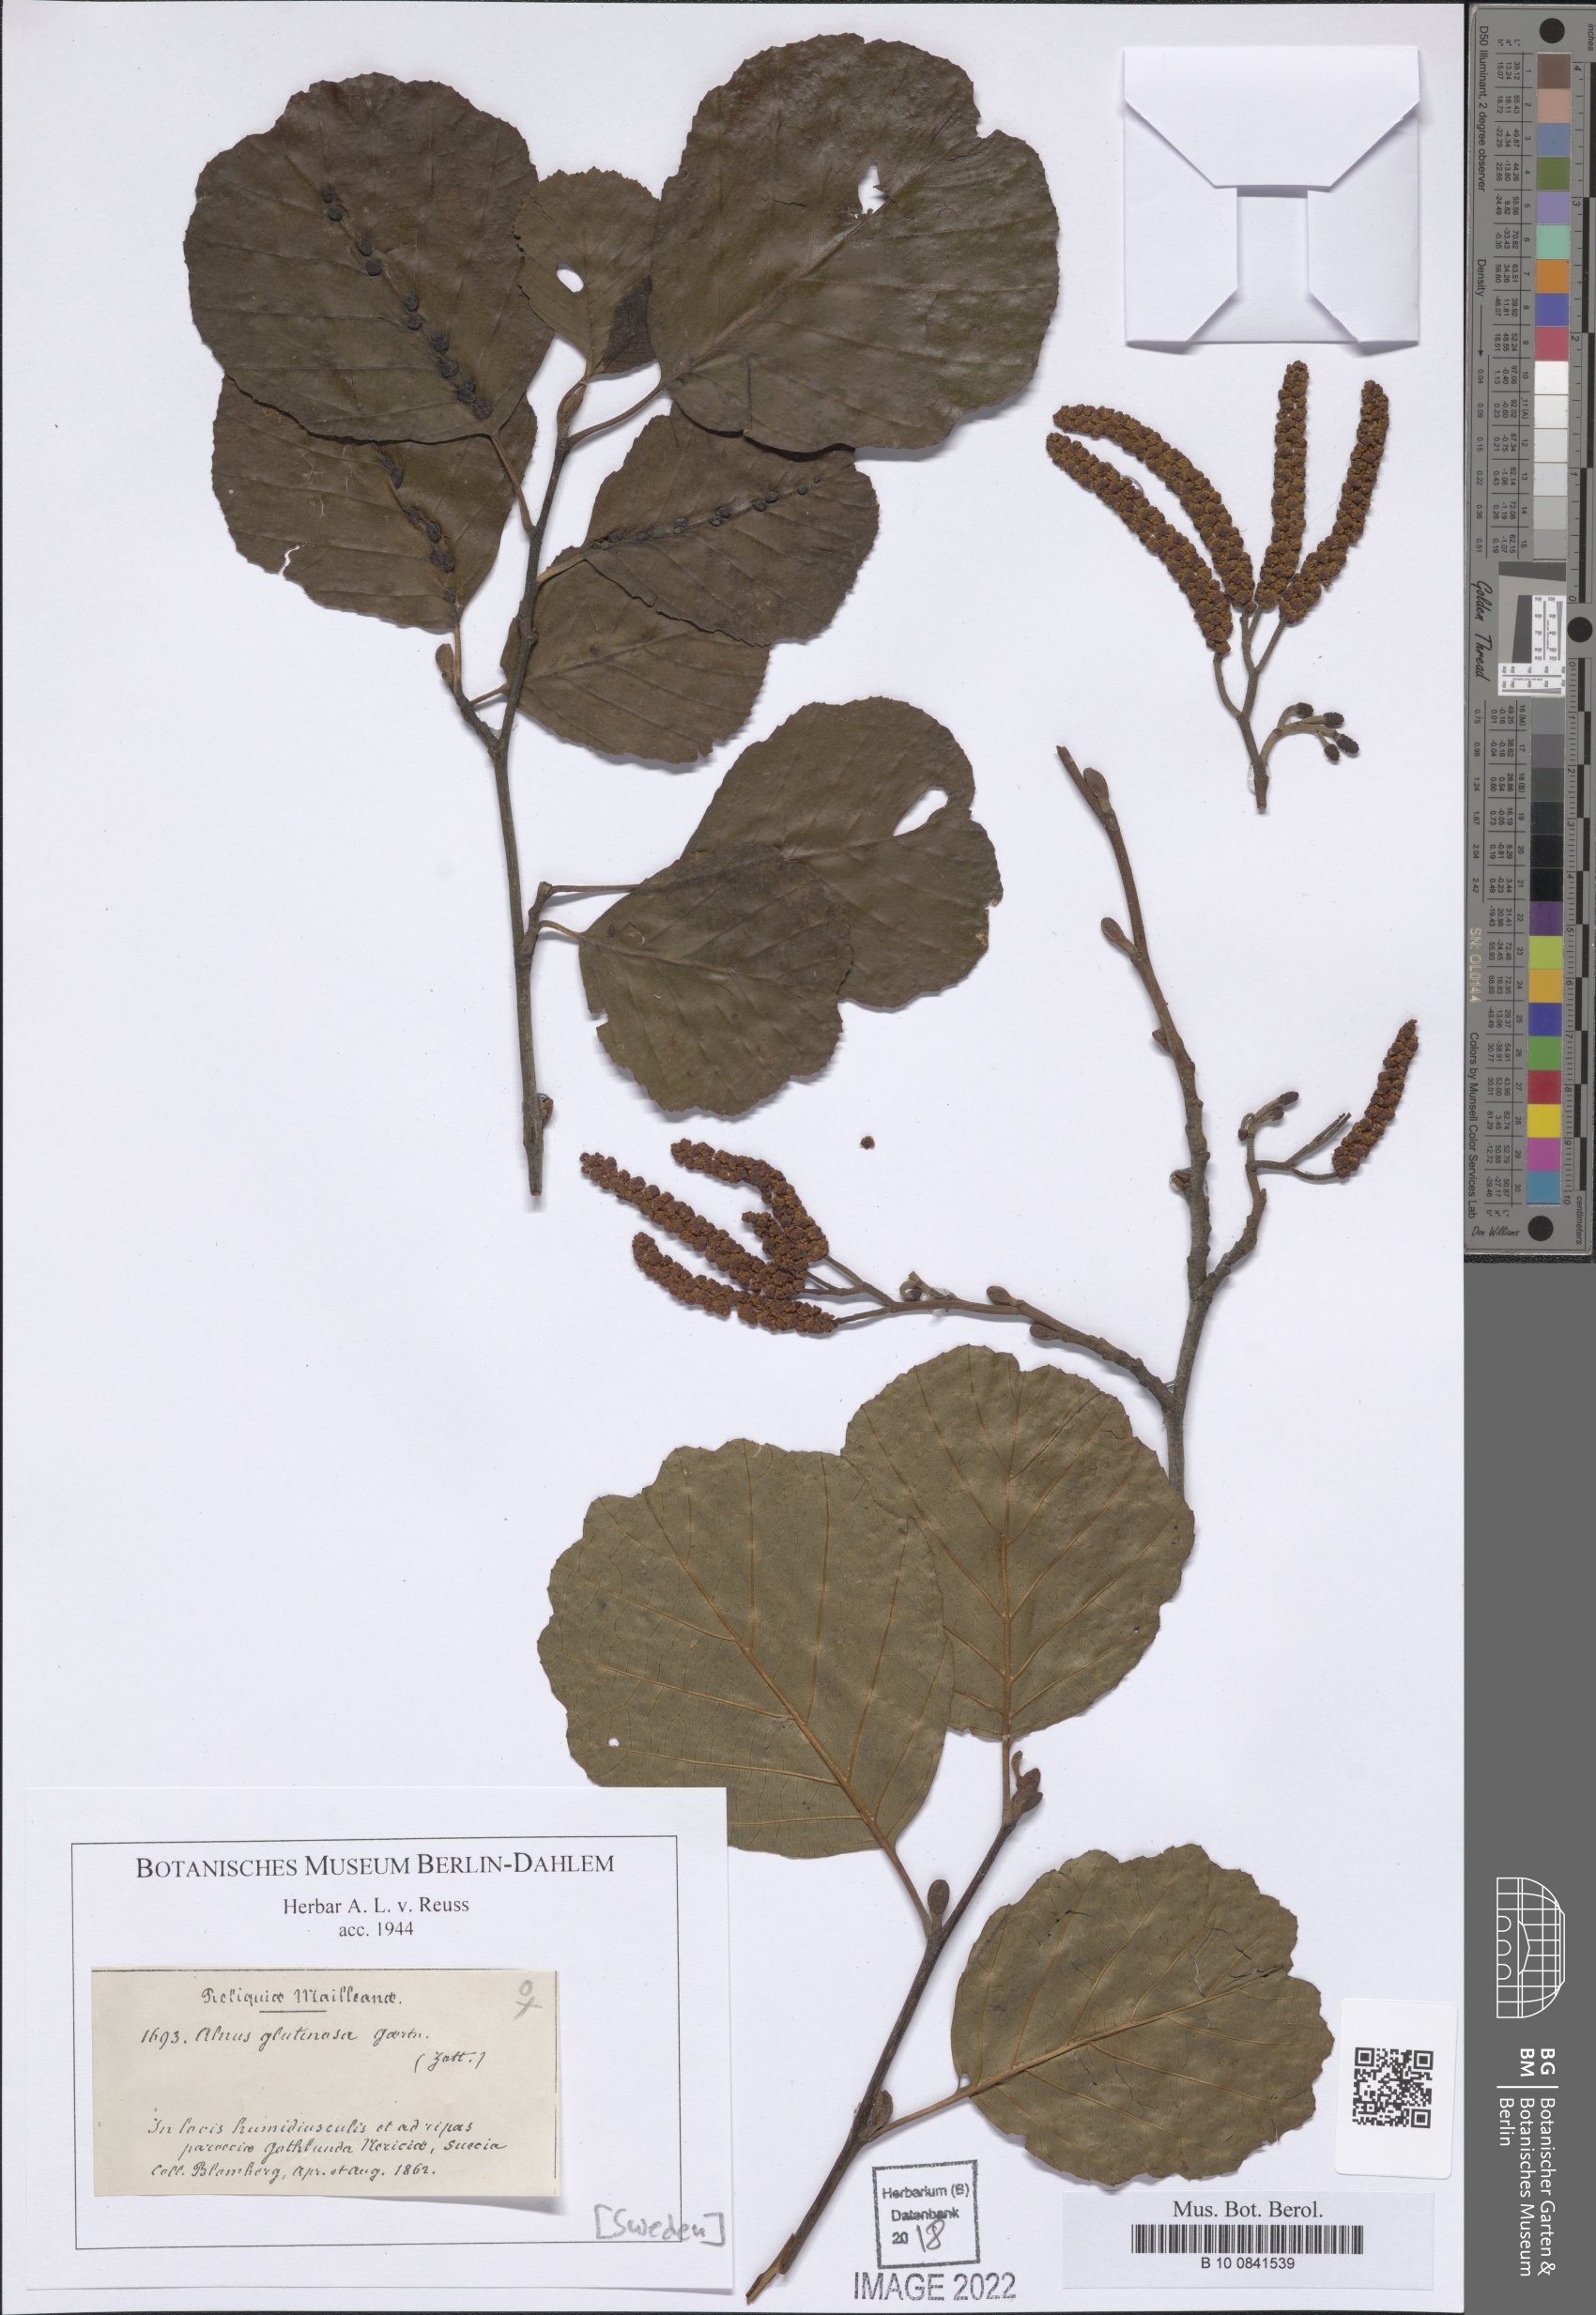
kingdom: Plantae
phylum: Tracheophyta
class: Magnoliopsida
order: Fagales
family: Betulaceae
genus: Alnus
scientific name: Alnus glutinosa
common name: Black alder
